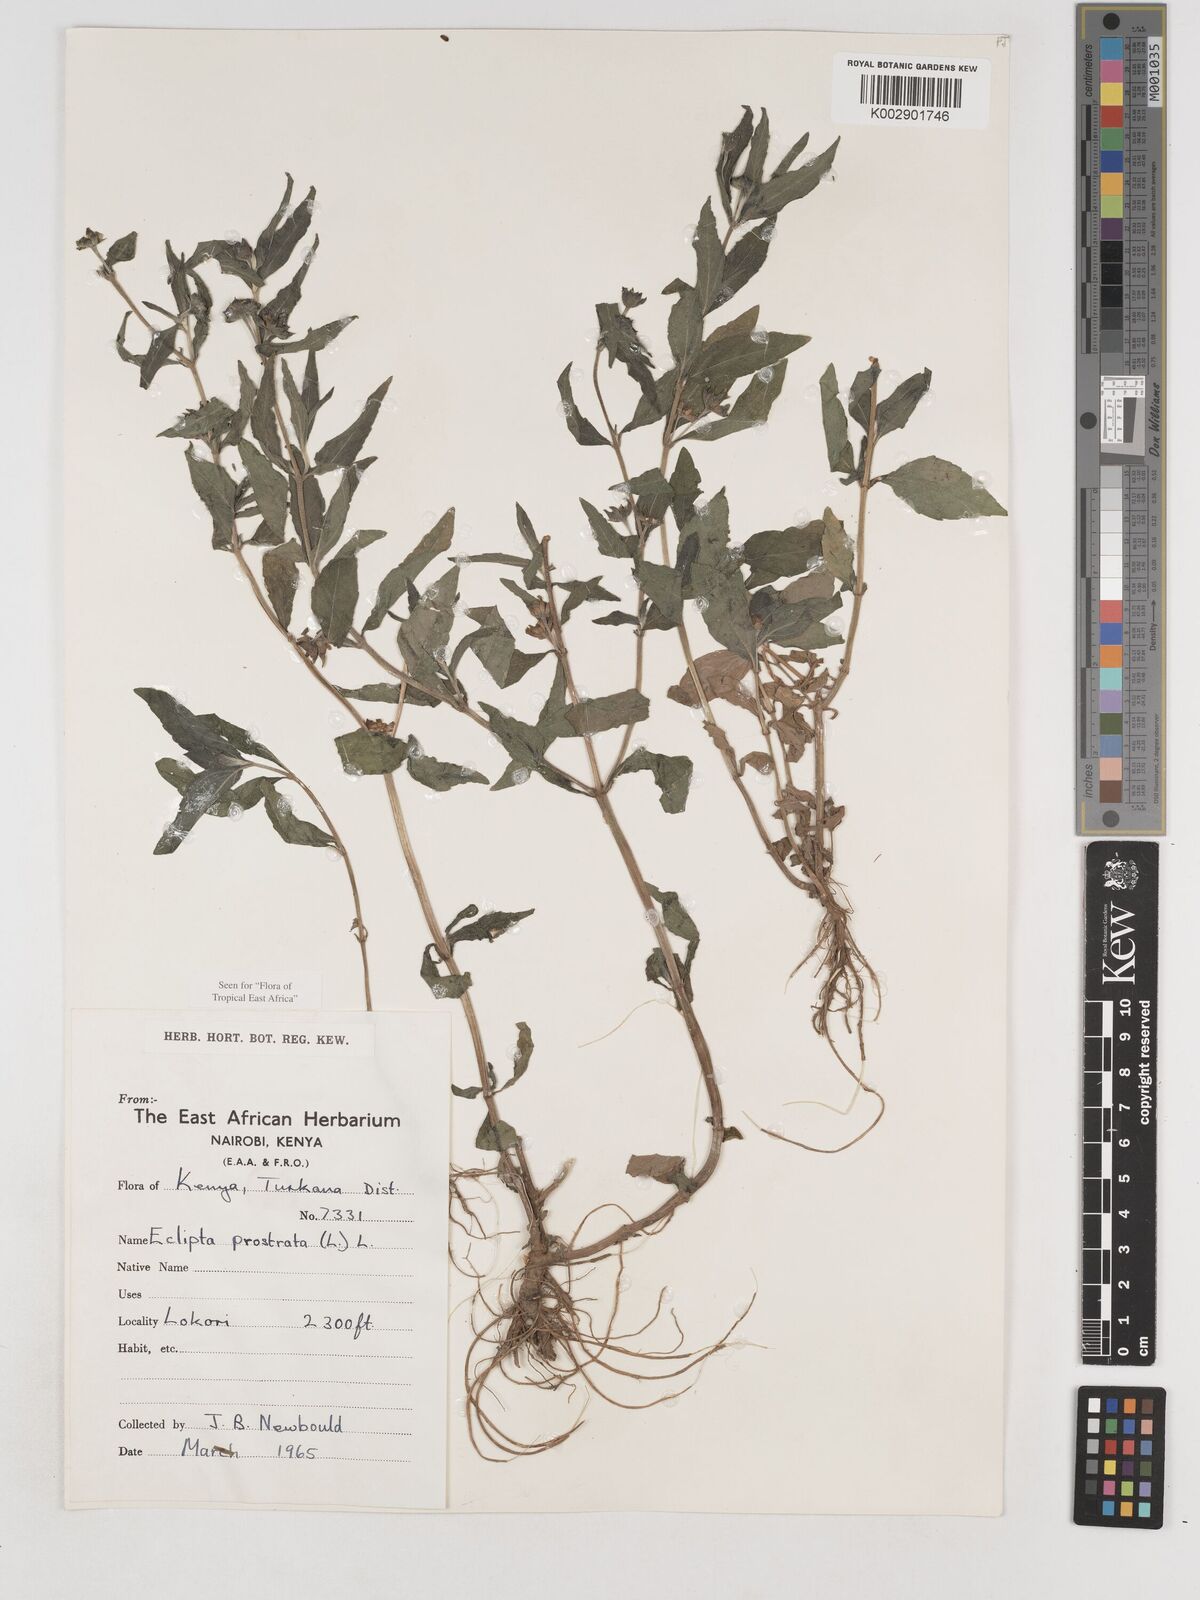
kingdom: Plantae
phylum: Tracheophyta
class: Magnoliopsida
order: Asterales
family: Asteraceae
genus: Eclipta
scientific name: Eclipta prostrata
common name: False daisy
